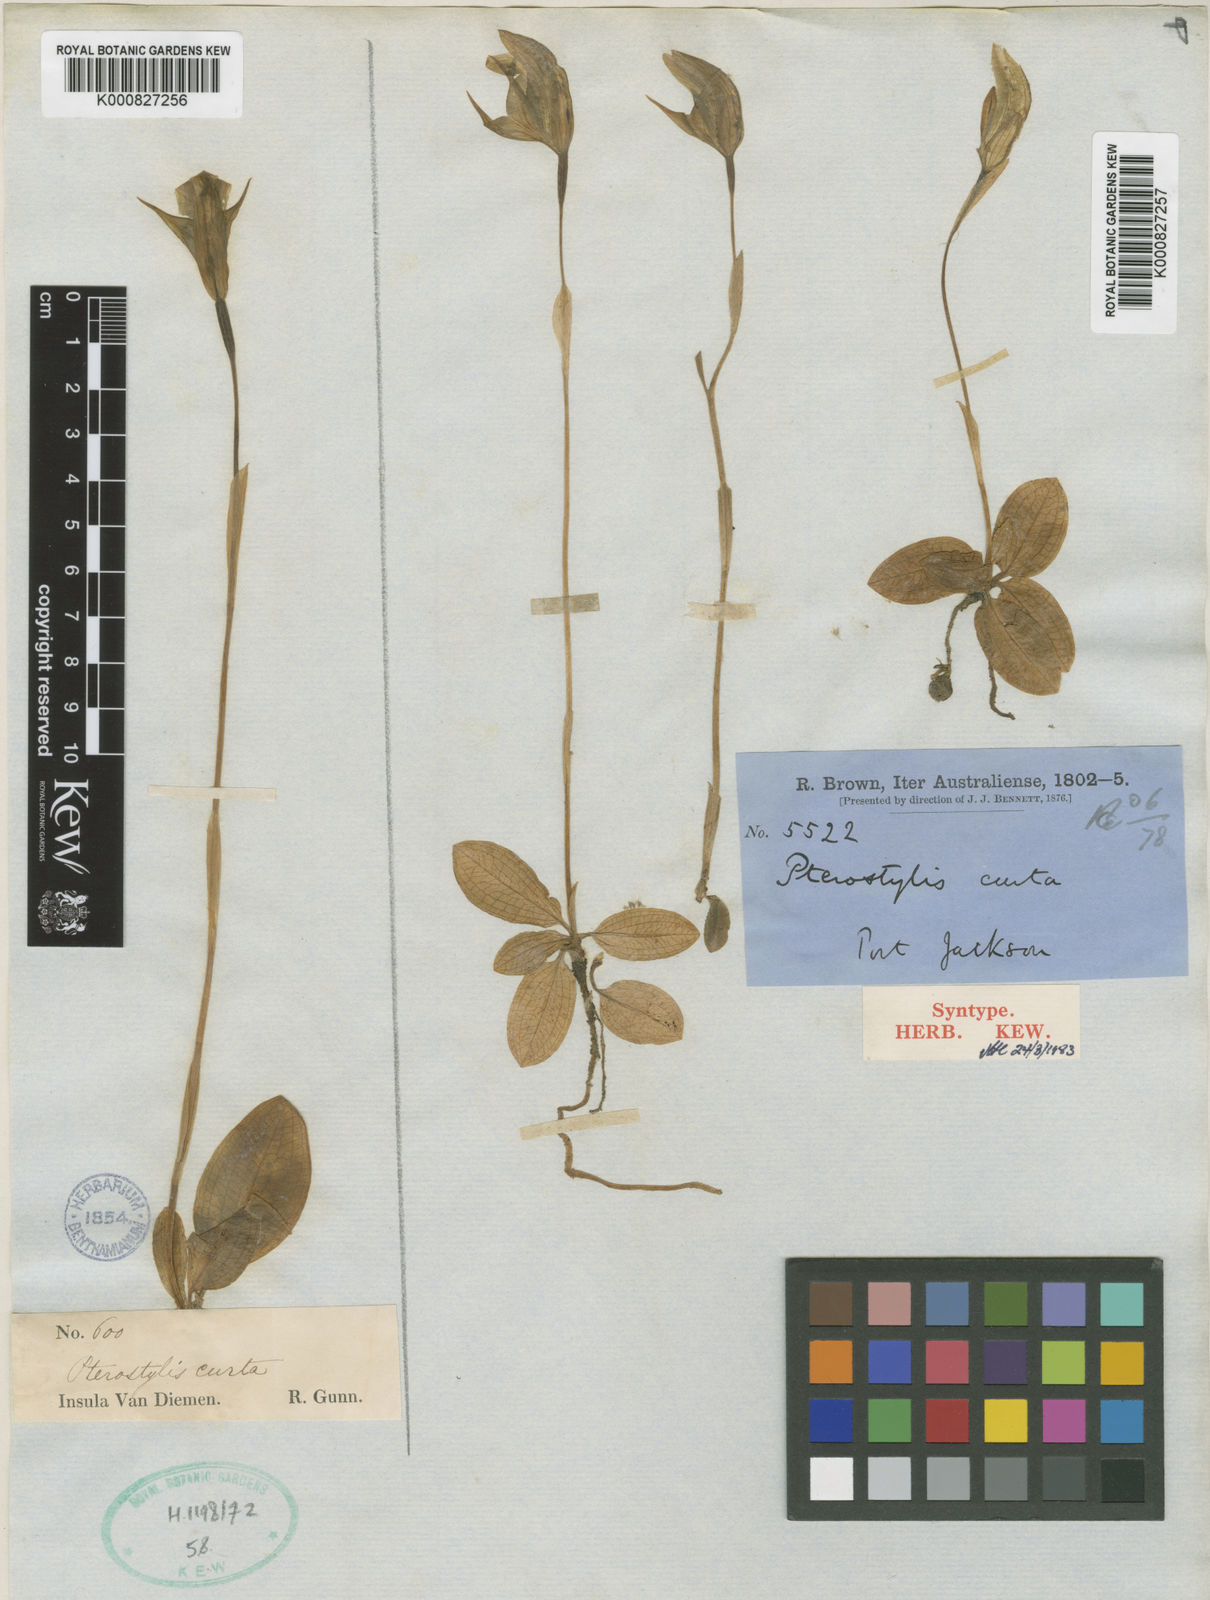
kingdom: Plantae
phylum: Tracheophyta
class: Liliopsida
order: Asparagales
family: Orchidaceae
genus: Pterostylis
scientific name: Pterostylis curta
